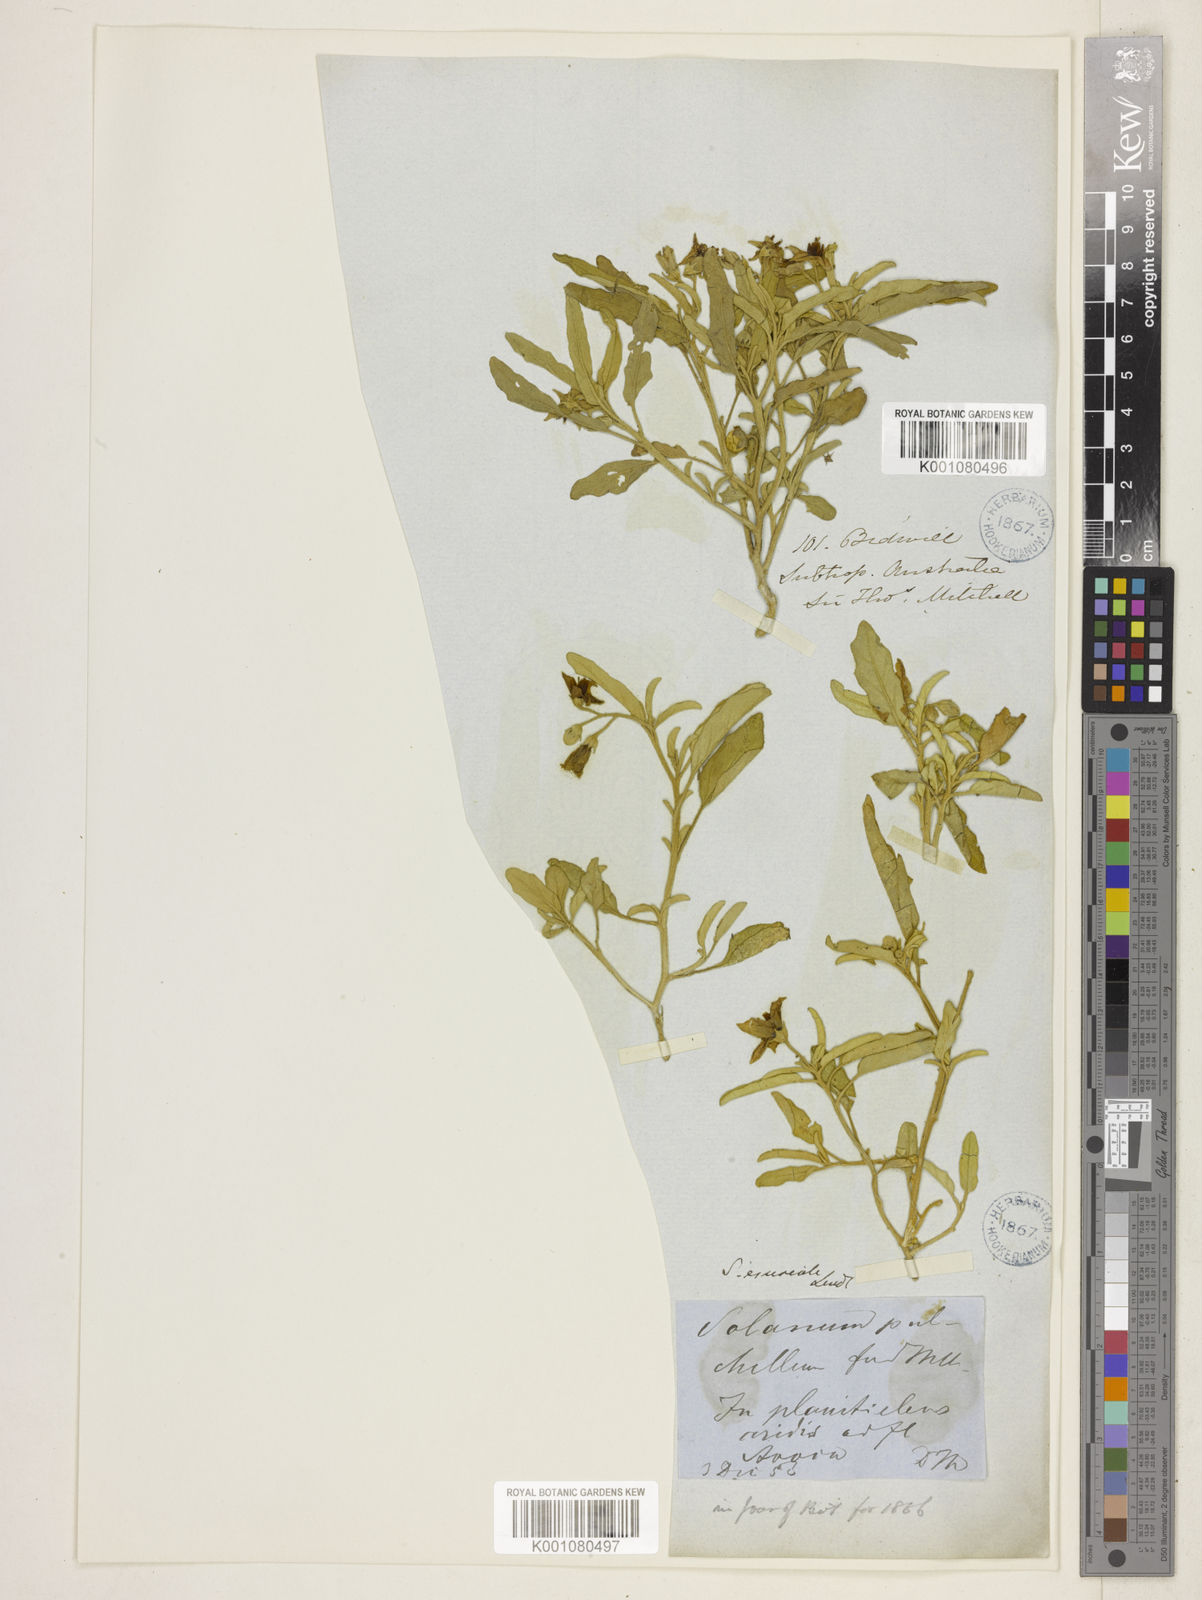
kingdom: Plantae
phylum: Tracheophyta
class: Magnoliopsida
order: Solanales
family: Solanaceae
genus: Solanum
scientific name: Solanum esuriale
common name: Wild tomato
